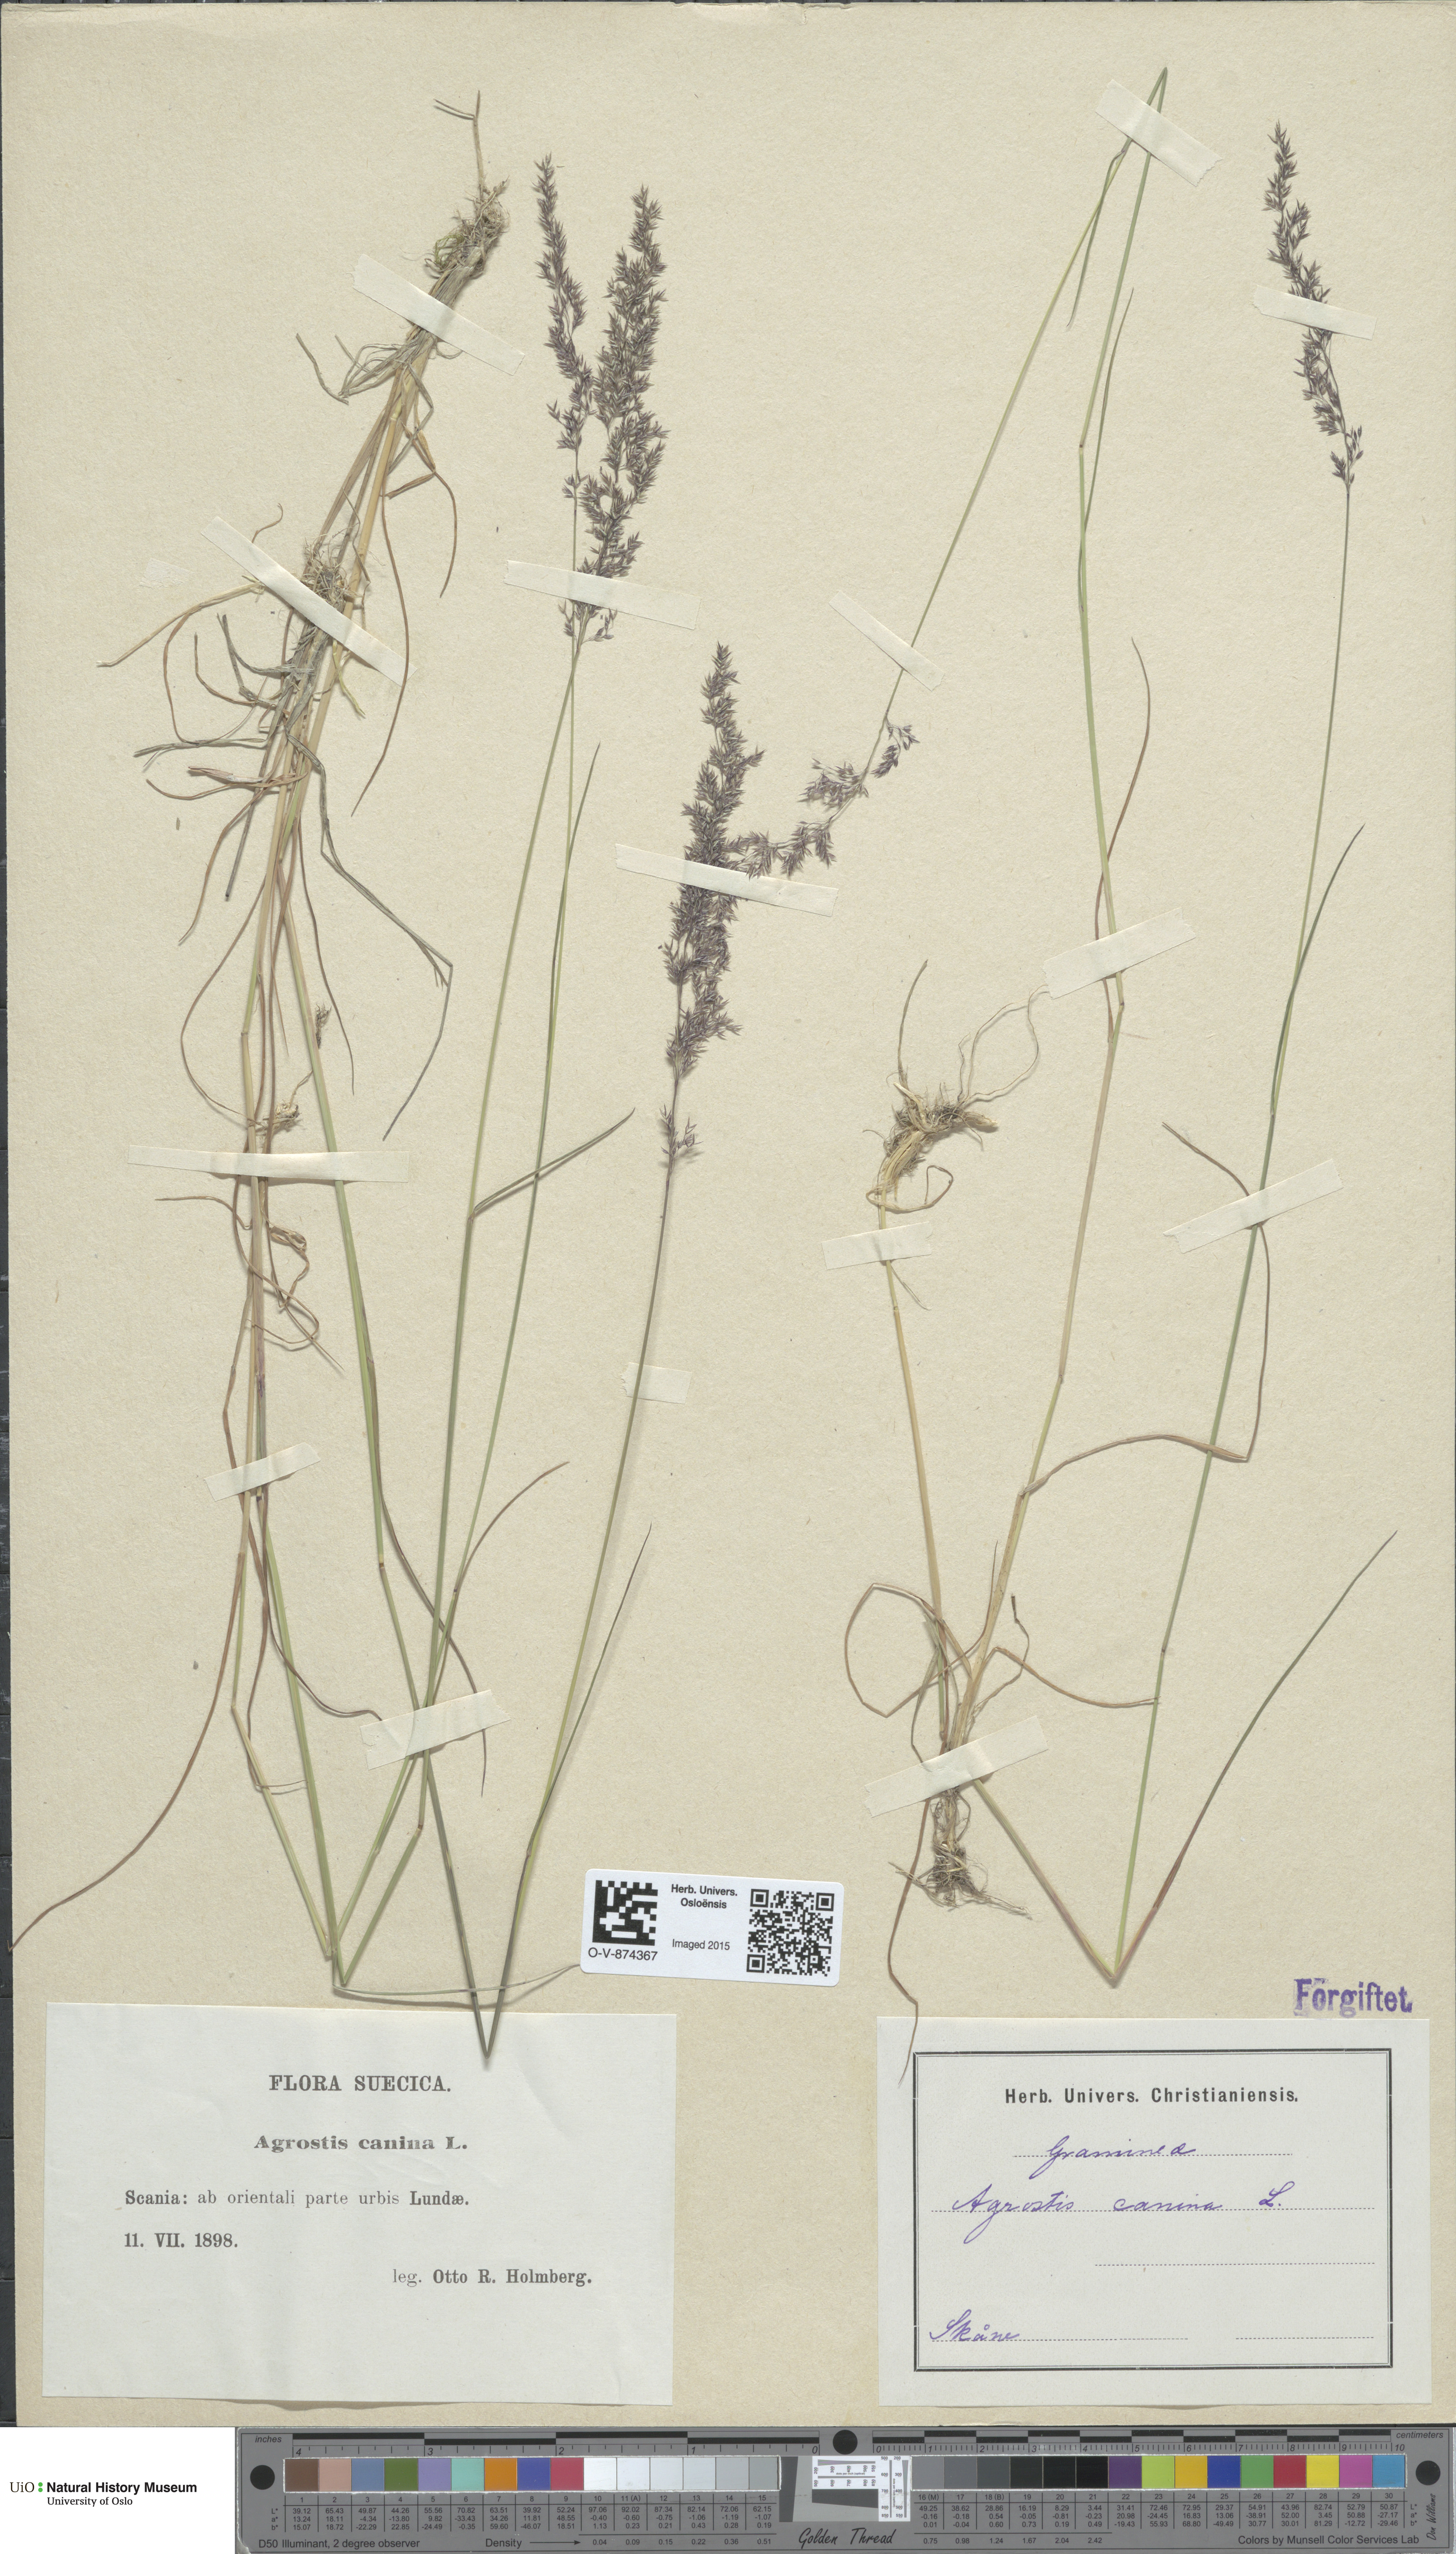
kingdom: Plantae
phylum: Tracheophyta
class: Liliopsida
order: Poales
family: Poaceae
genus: Agrostis
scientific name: Agrostis canina
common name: Velvet bent
